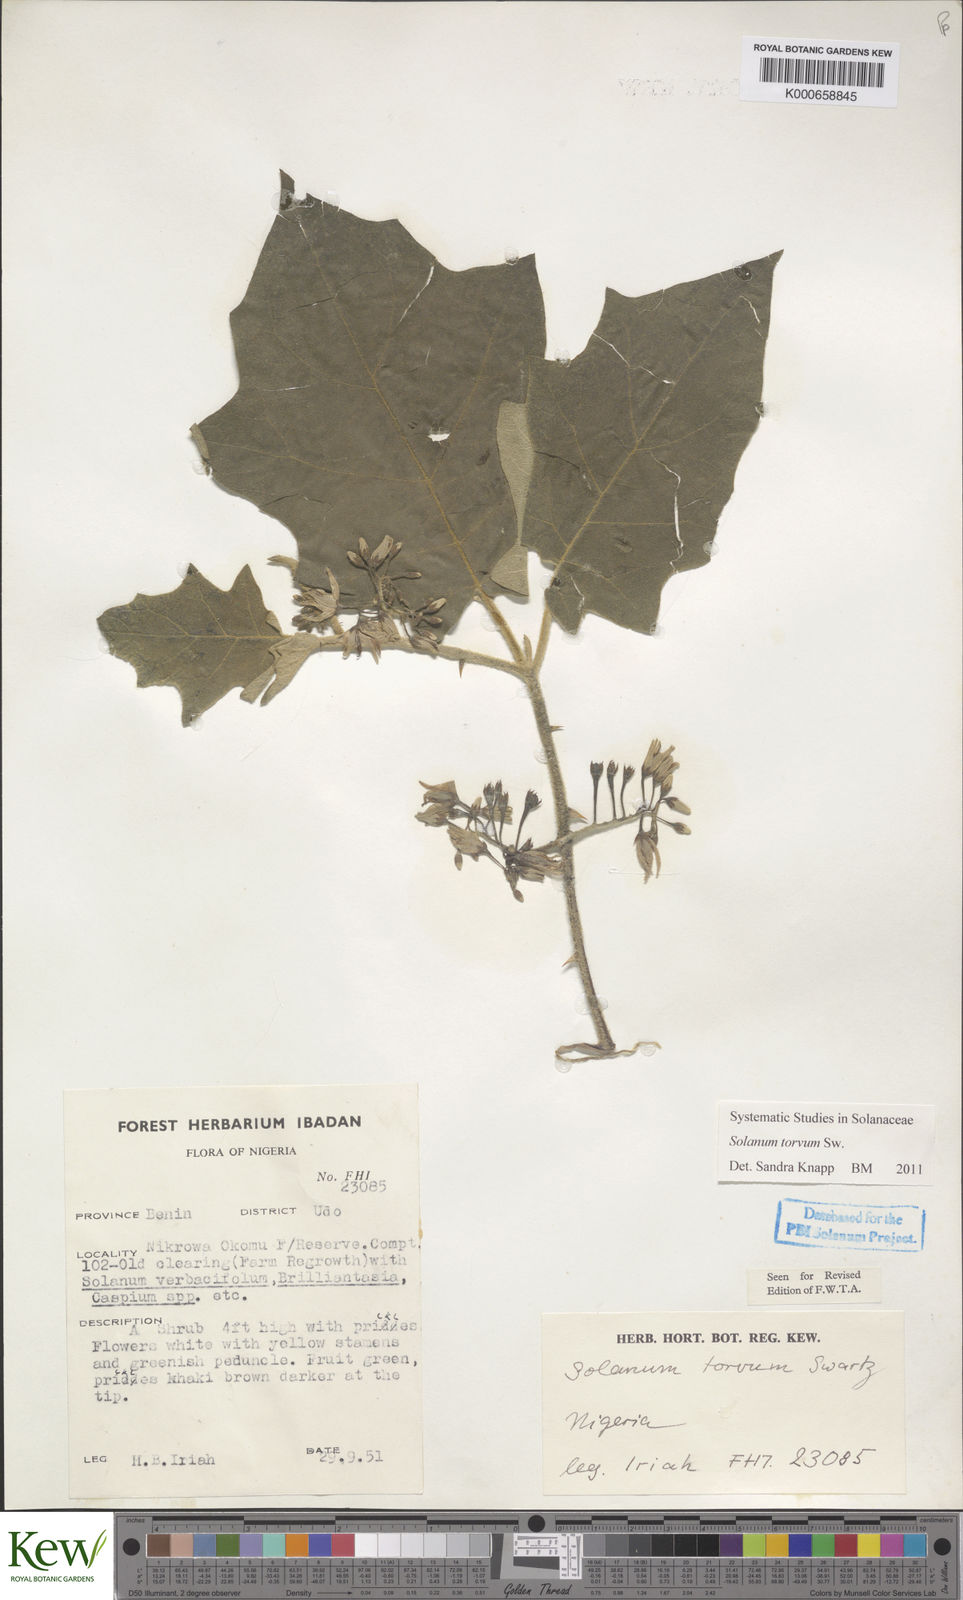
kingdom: Plantae
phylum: Tracheophyta
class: Magnoliopsida
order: Solanales
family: Solanaceae
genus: Solanum
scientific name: Solanum torvum
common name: Turkey berry
